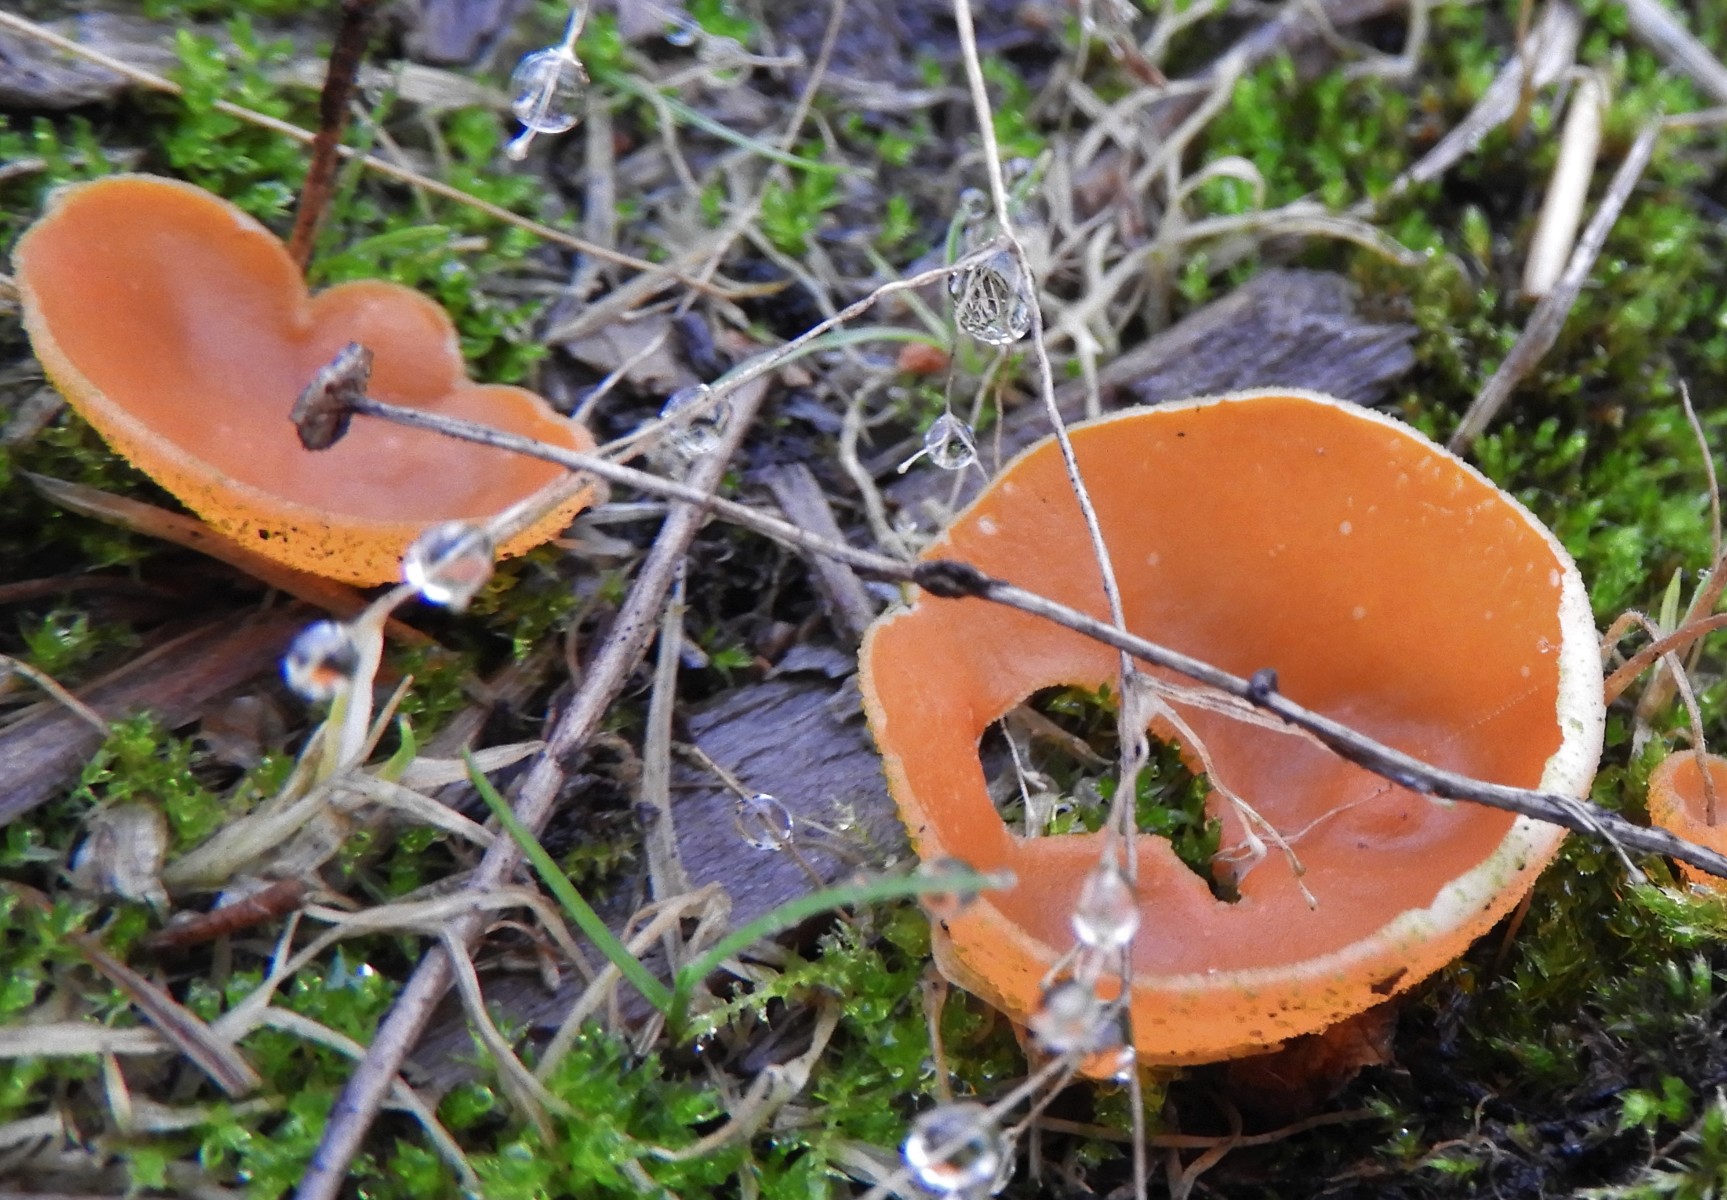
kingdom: Fungi
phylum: Ascomycota
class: Pezizomycetes
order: Pezizales
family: Pyronemataceae
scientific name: Pyronemataceae
